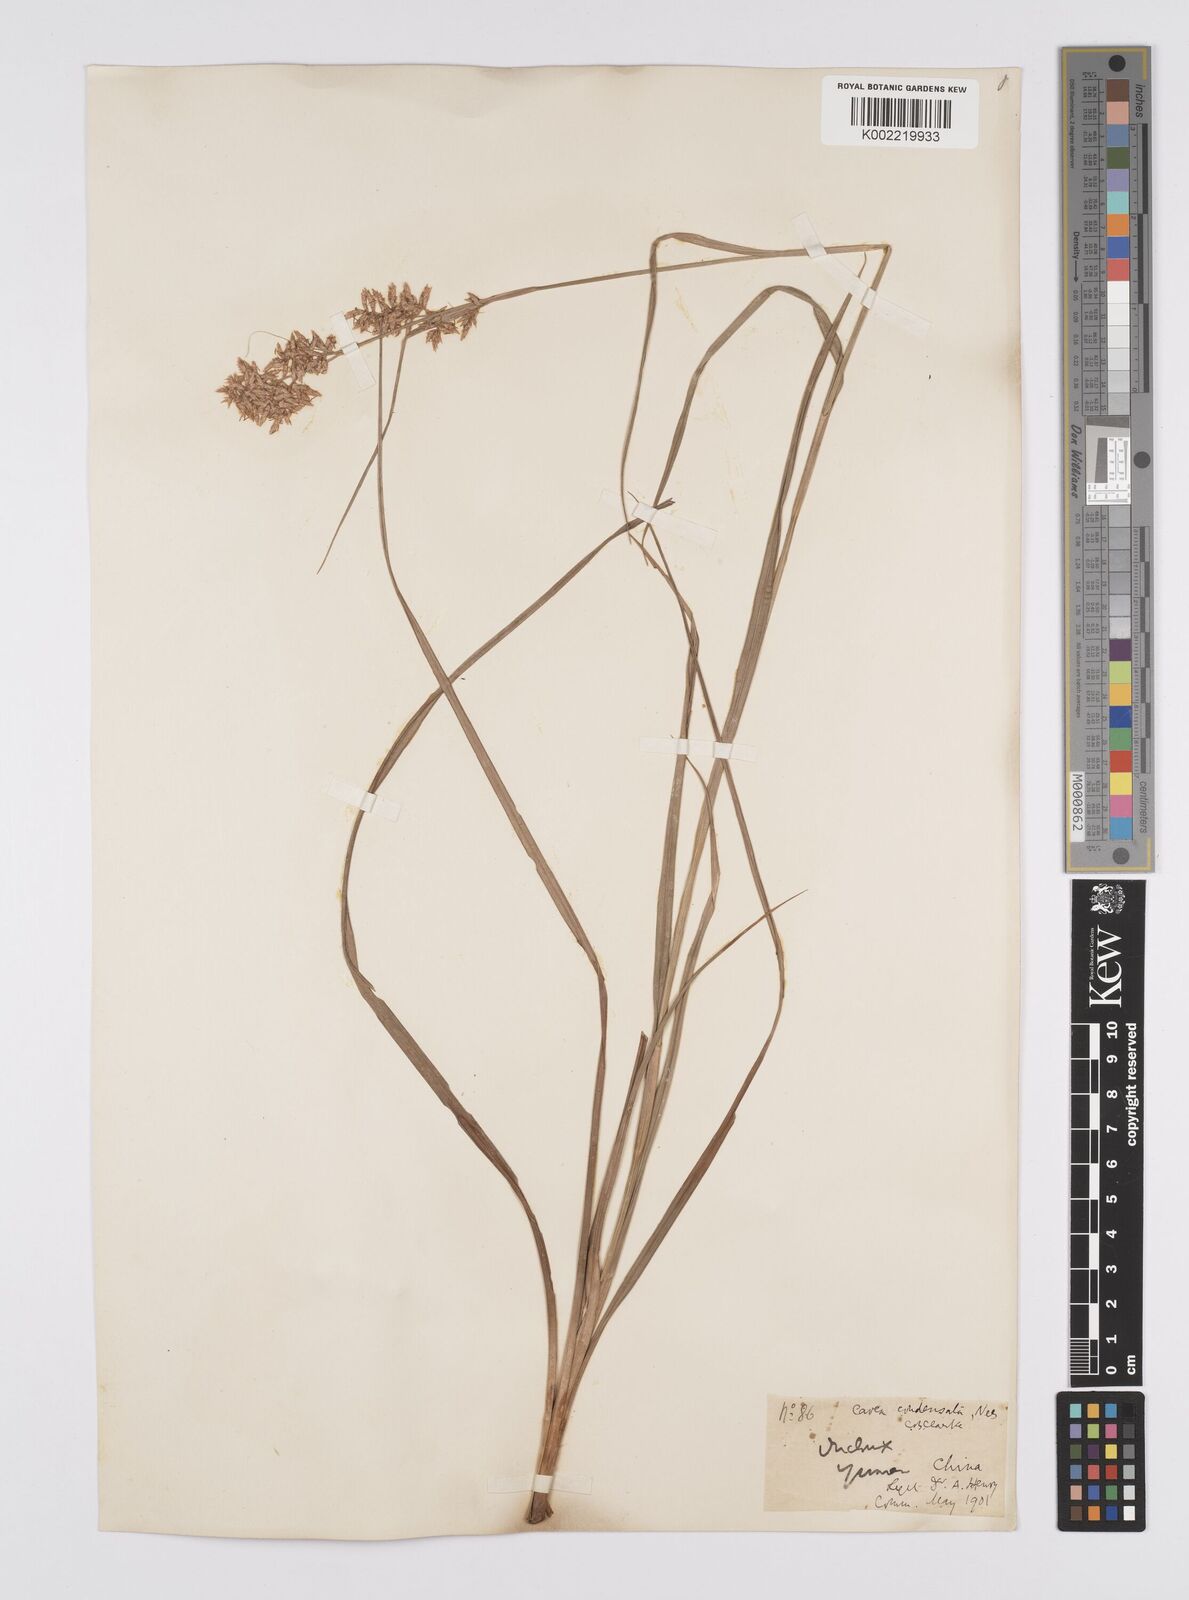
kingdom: Plantae
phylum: Tracheophyta
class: Liliopsida
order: Poales
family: Cyperaceae
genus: Carex
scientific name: Carex cruciata
